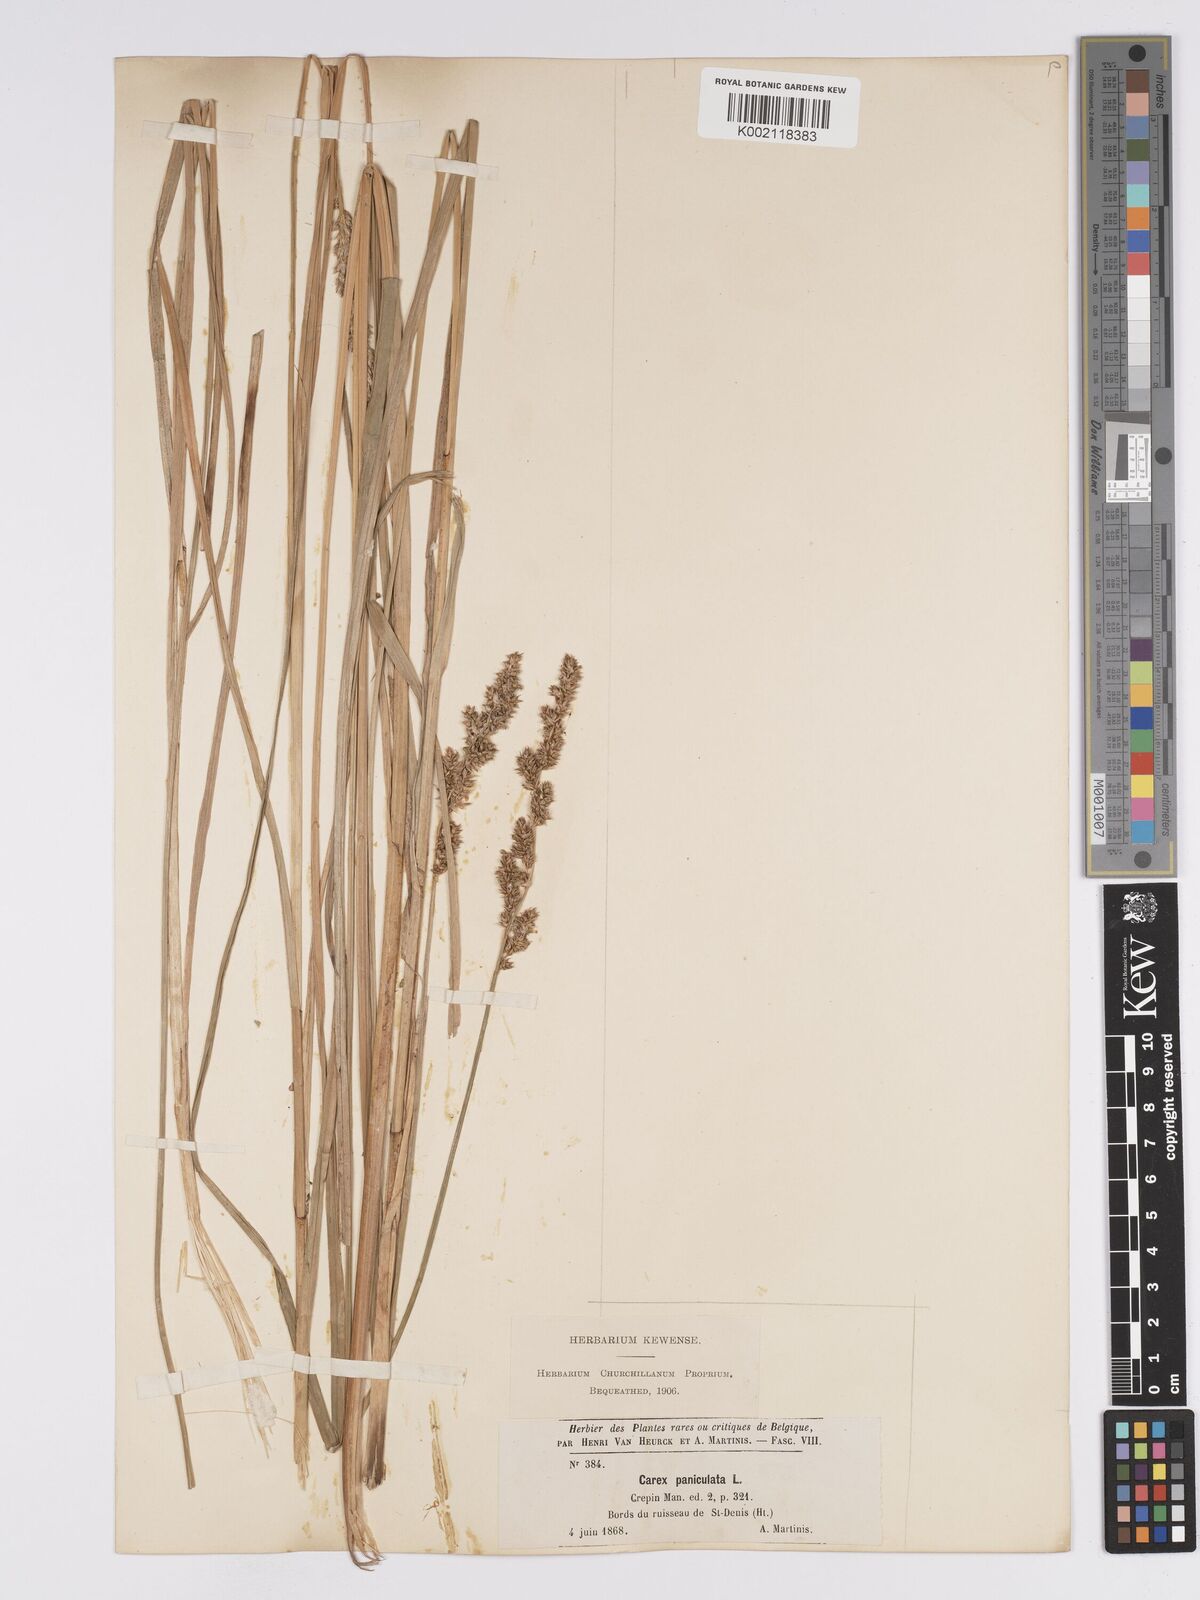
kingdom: Plantae
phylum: Tracheophyta
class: Liliopsida
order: Poales
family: Cyperaceae
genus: Carex
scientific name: Carex paniculata
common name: Greater tussock-sedge
